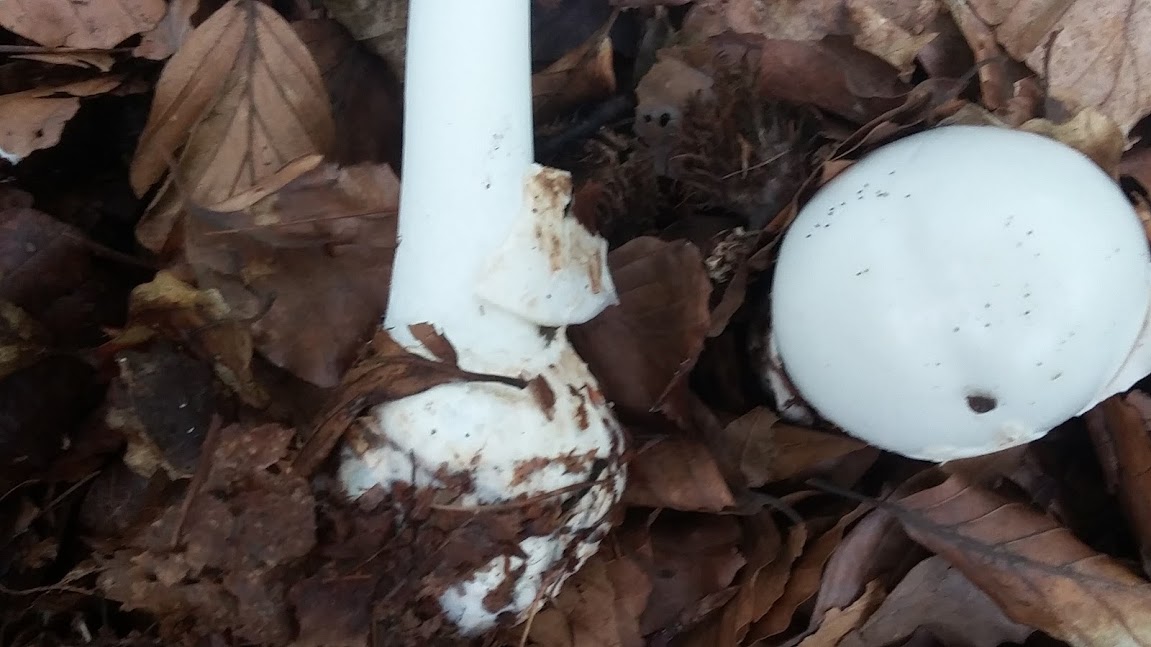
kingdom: Fungi
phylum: Basidiomycota
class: Agaricomycetes
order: Agaricales
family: Amanitaceae
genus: Amanita
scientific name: Amanita virosa
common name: snehvid fluesvamp
